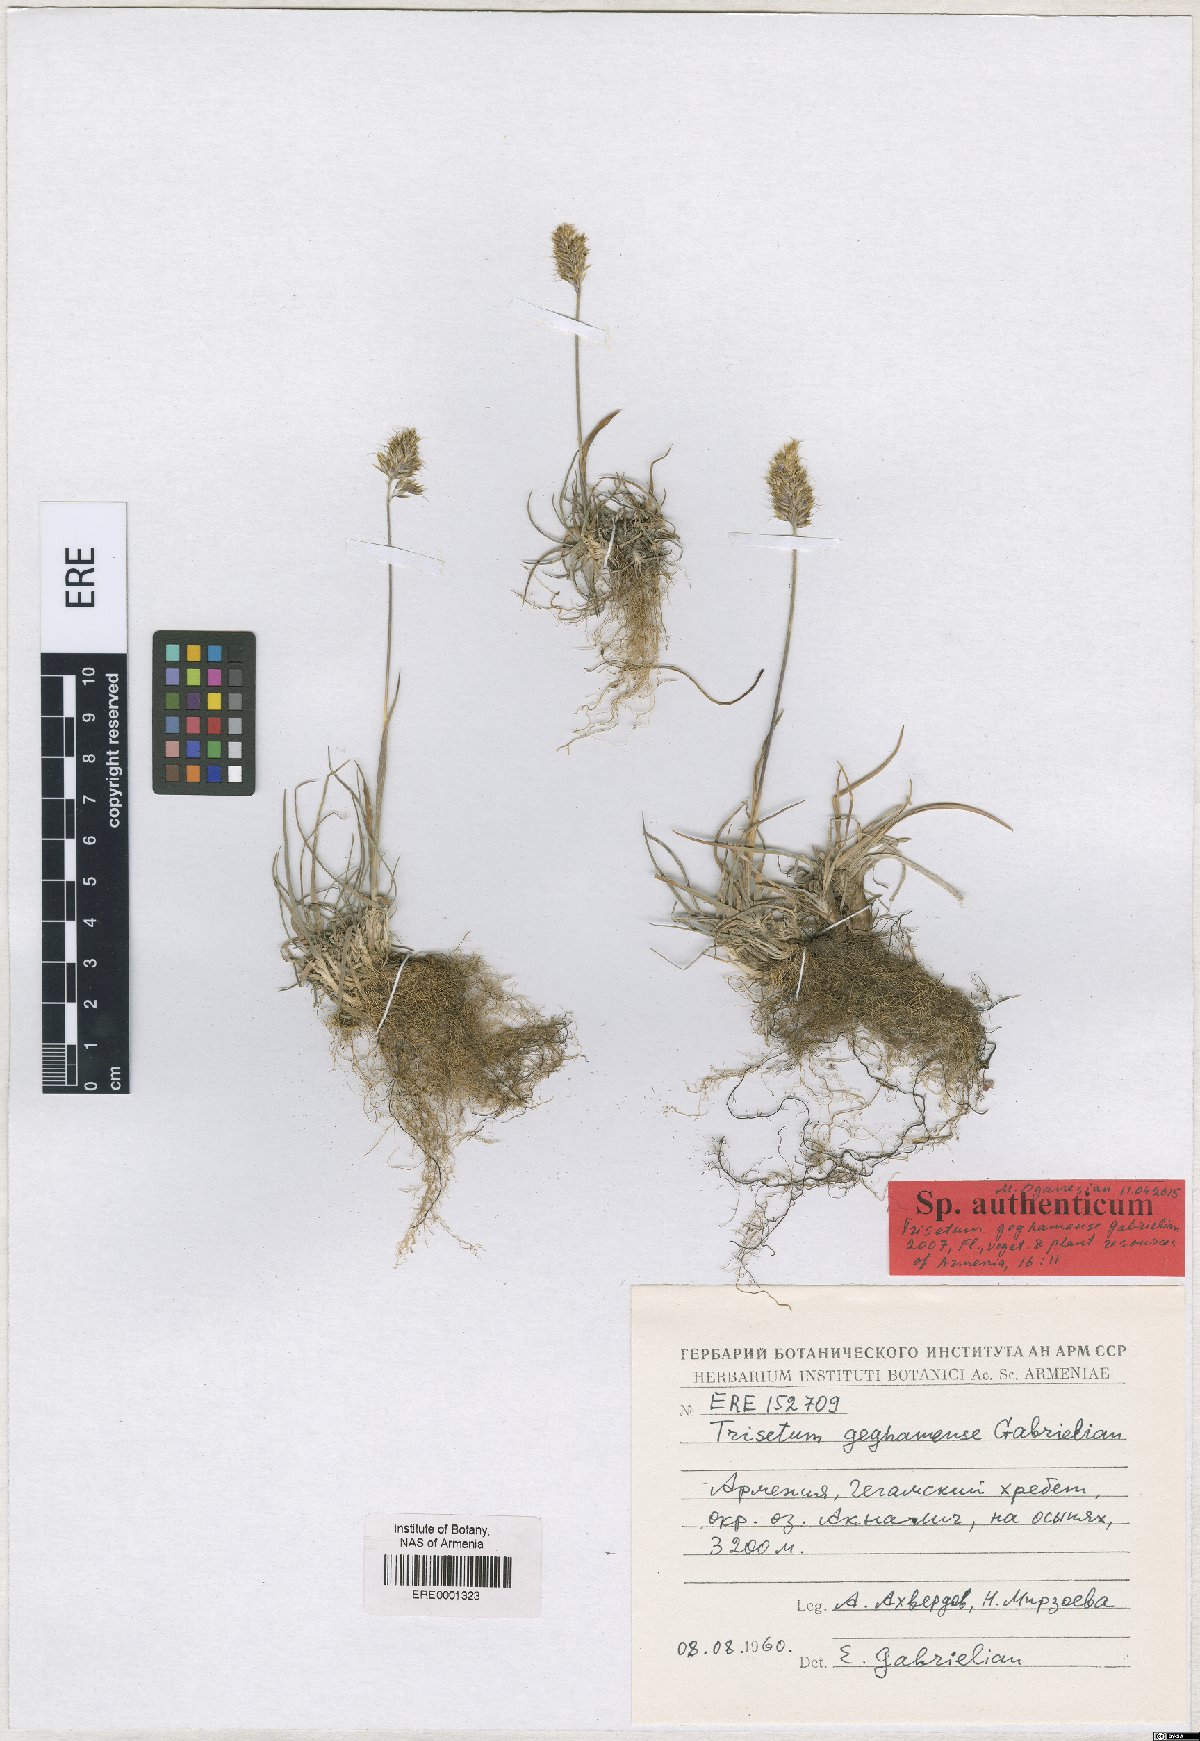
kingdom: Plantae
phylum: Tracheophyta
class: Liliopsida
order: Poales
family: Poaceae
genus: Koeleria
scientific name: Koeleria spicata
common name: Mountain trisetum
